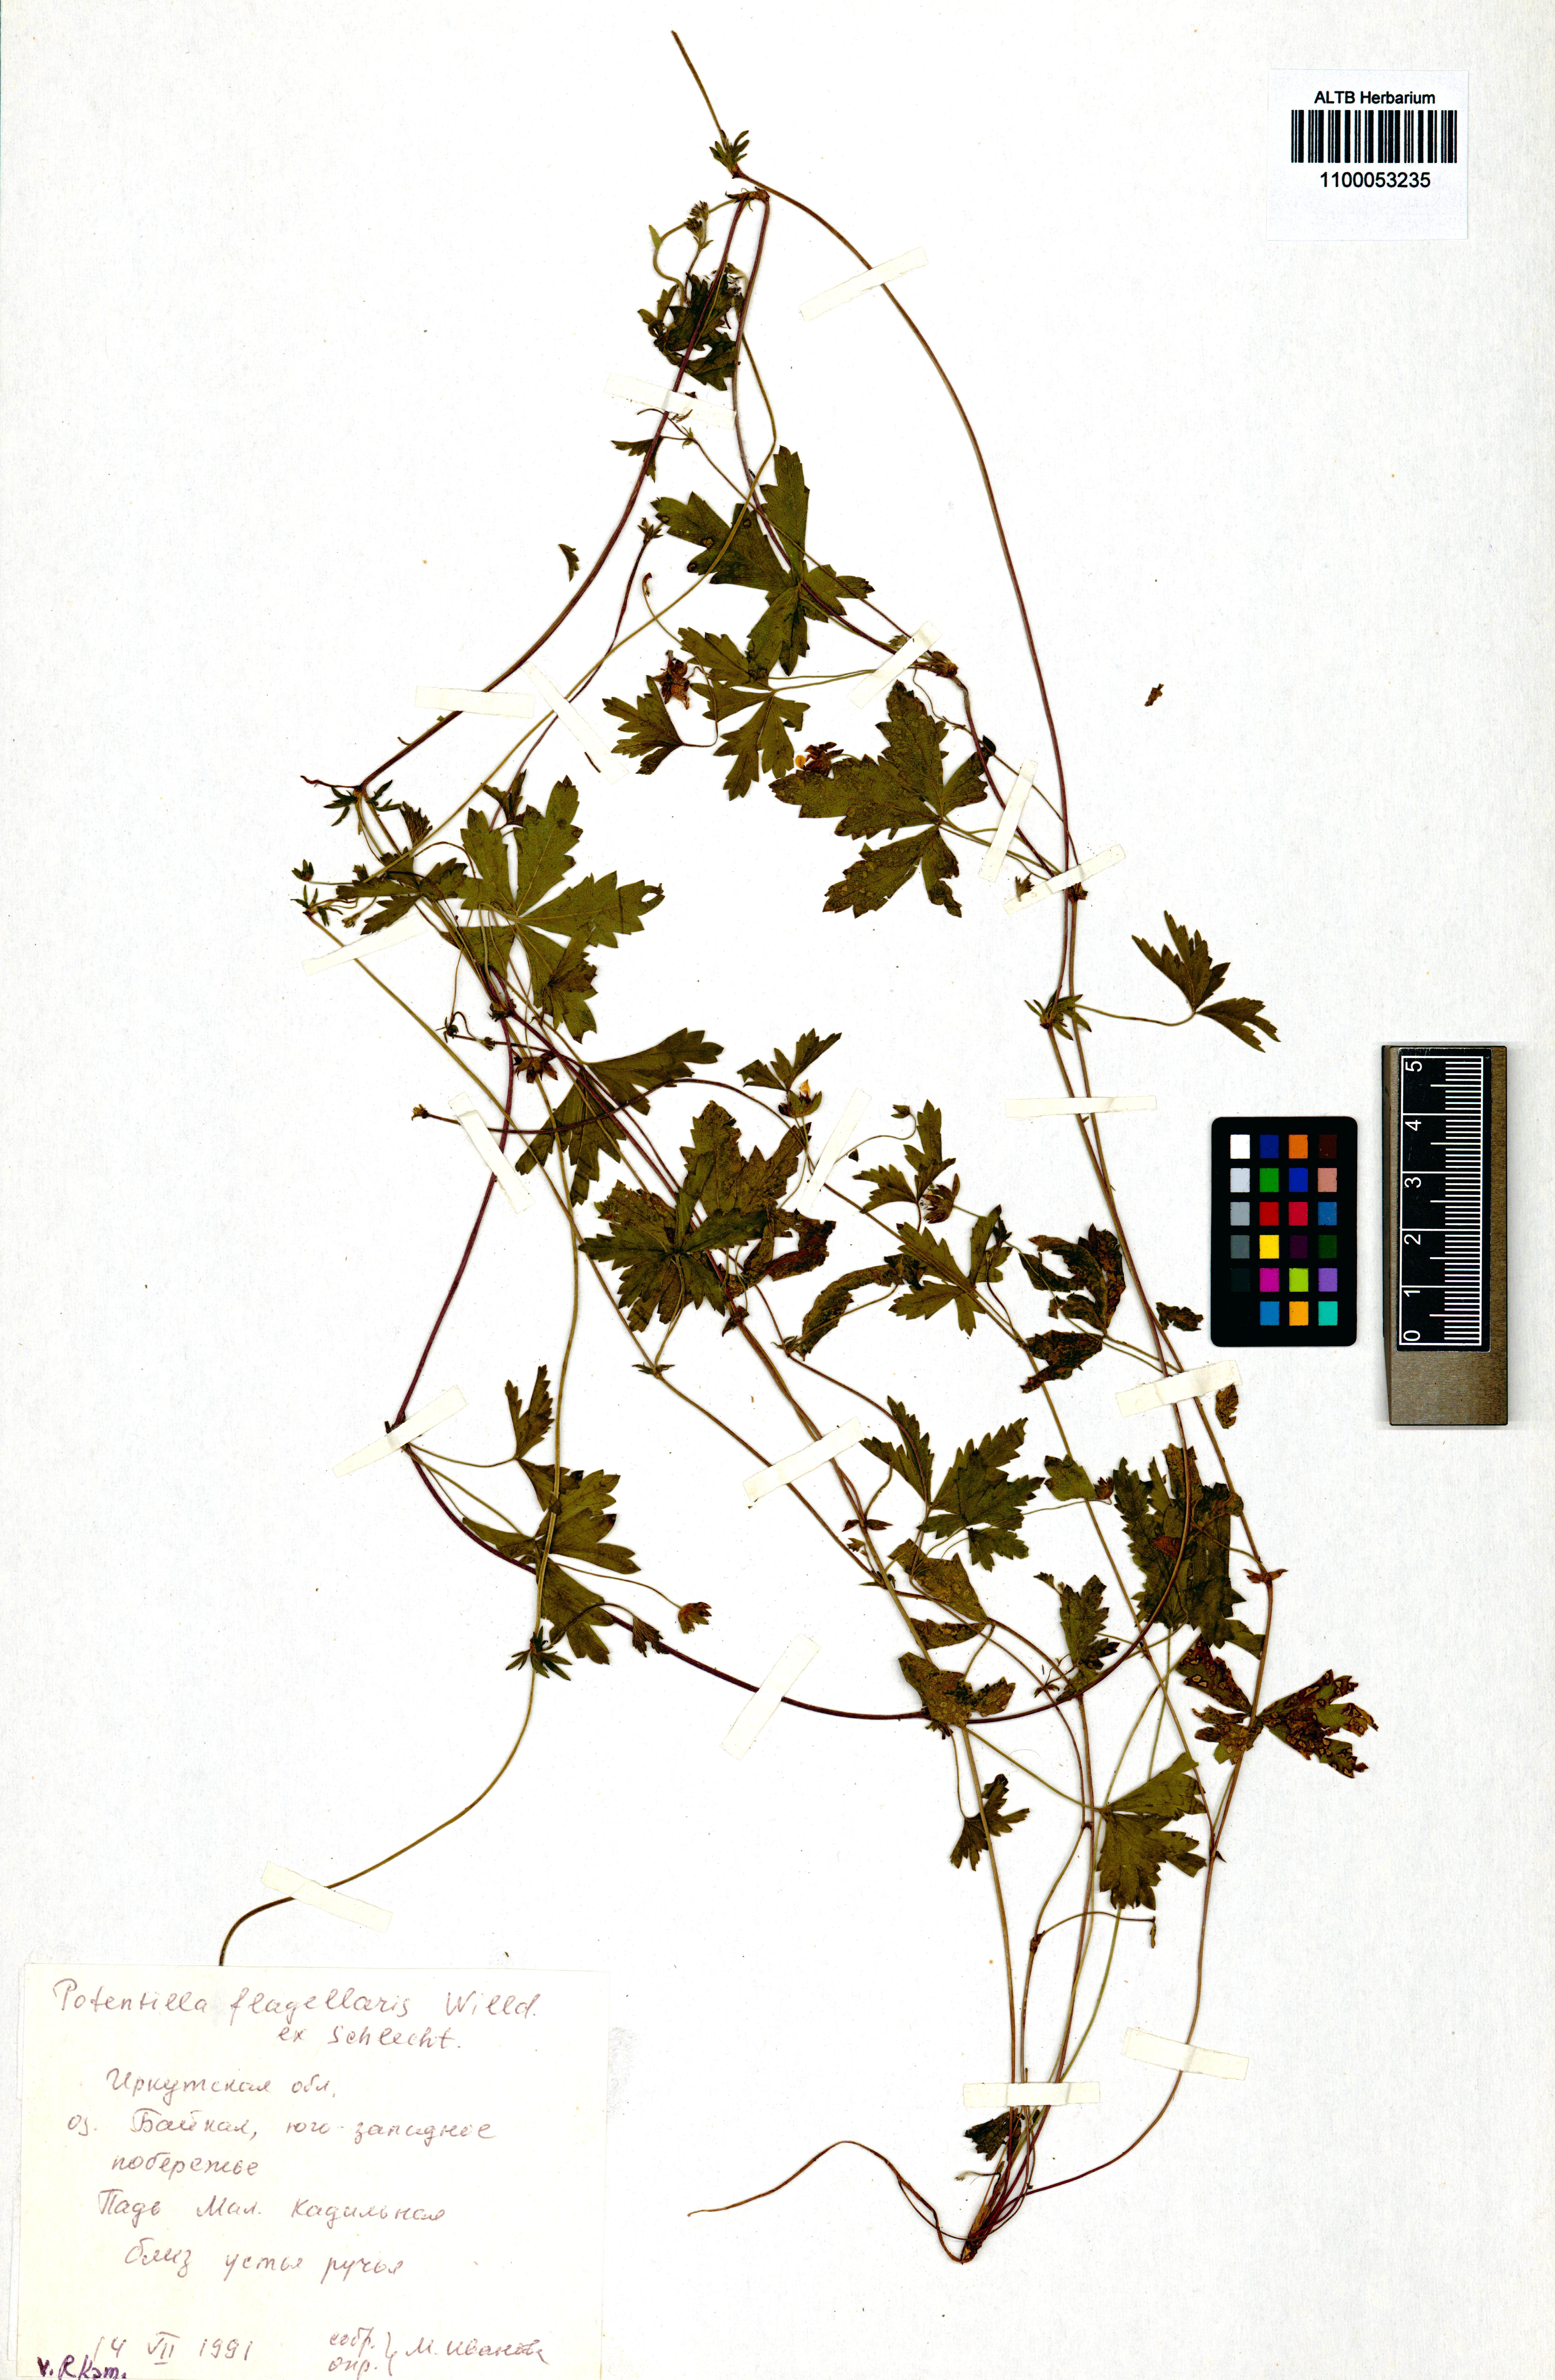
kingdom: Plantae
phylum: Tracheophyta
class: Magnoliopsida
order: Rosales
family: Rosaceae
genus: Potentilla
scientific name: Potentilla flagellaris
